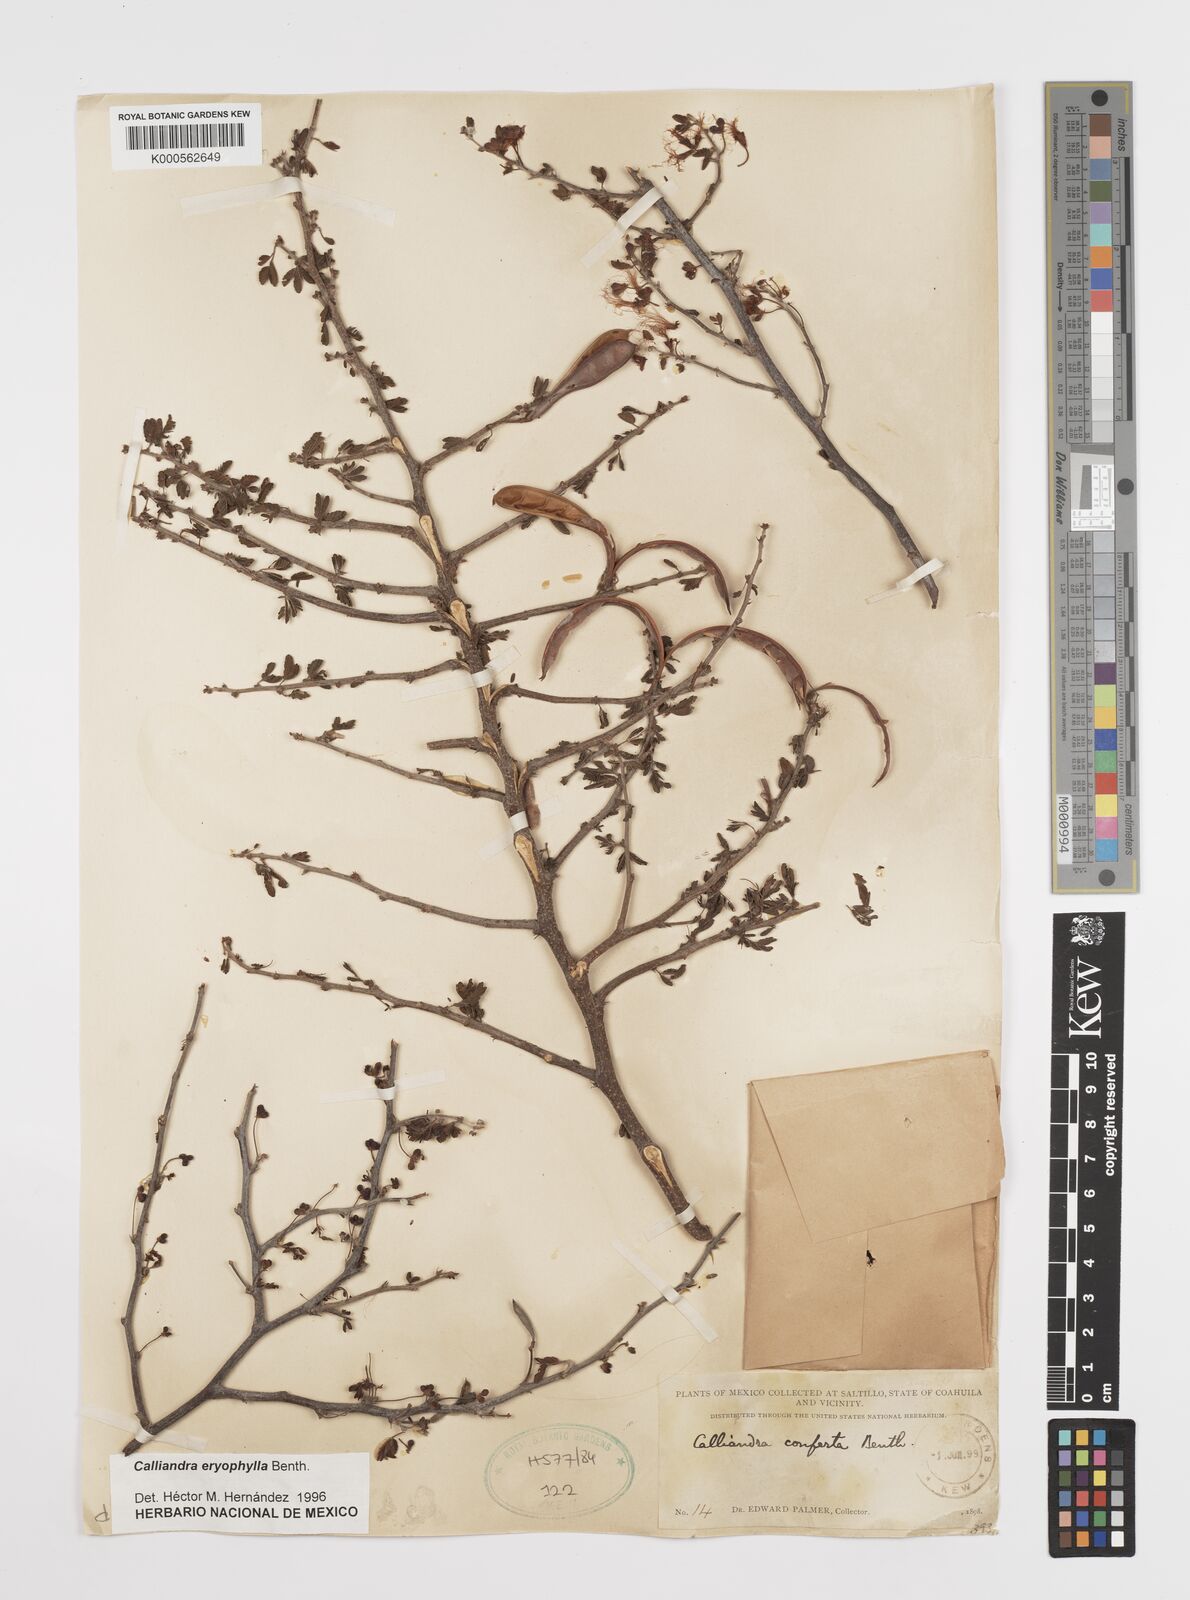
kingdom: Plantae
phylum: Tracheophyta
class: Magnoliopsida
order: Fabales
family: Fabaceae
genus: Calliandra
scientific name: Calliandra eriophylla
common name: Fairy-duster
